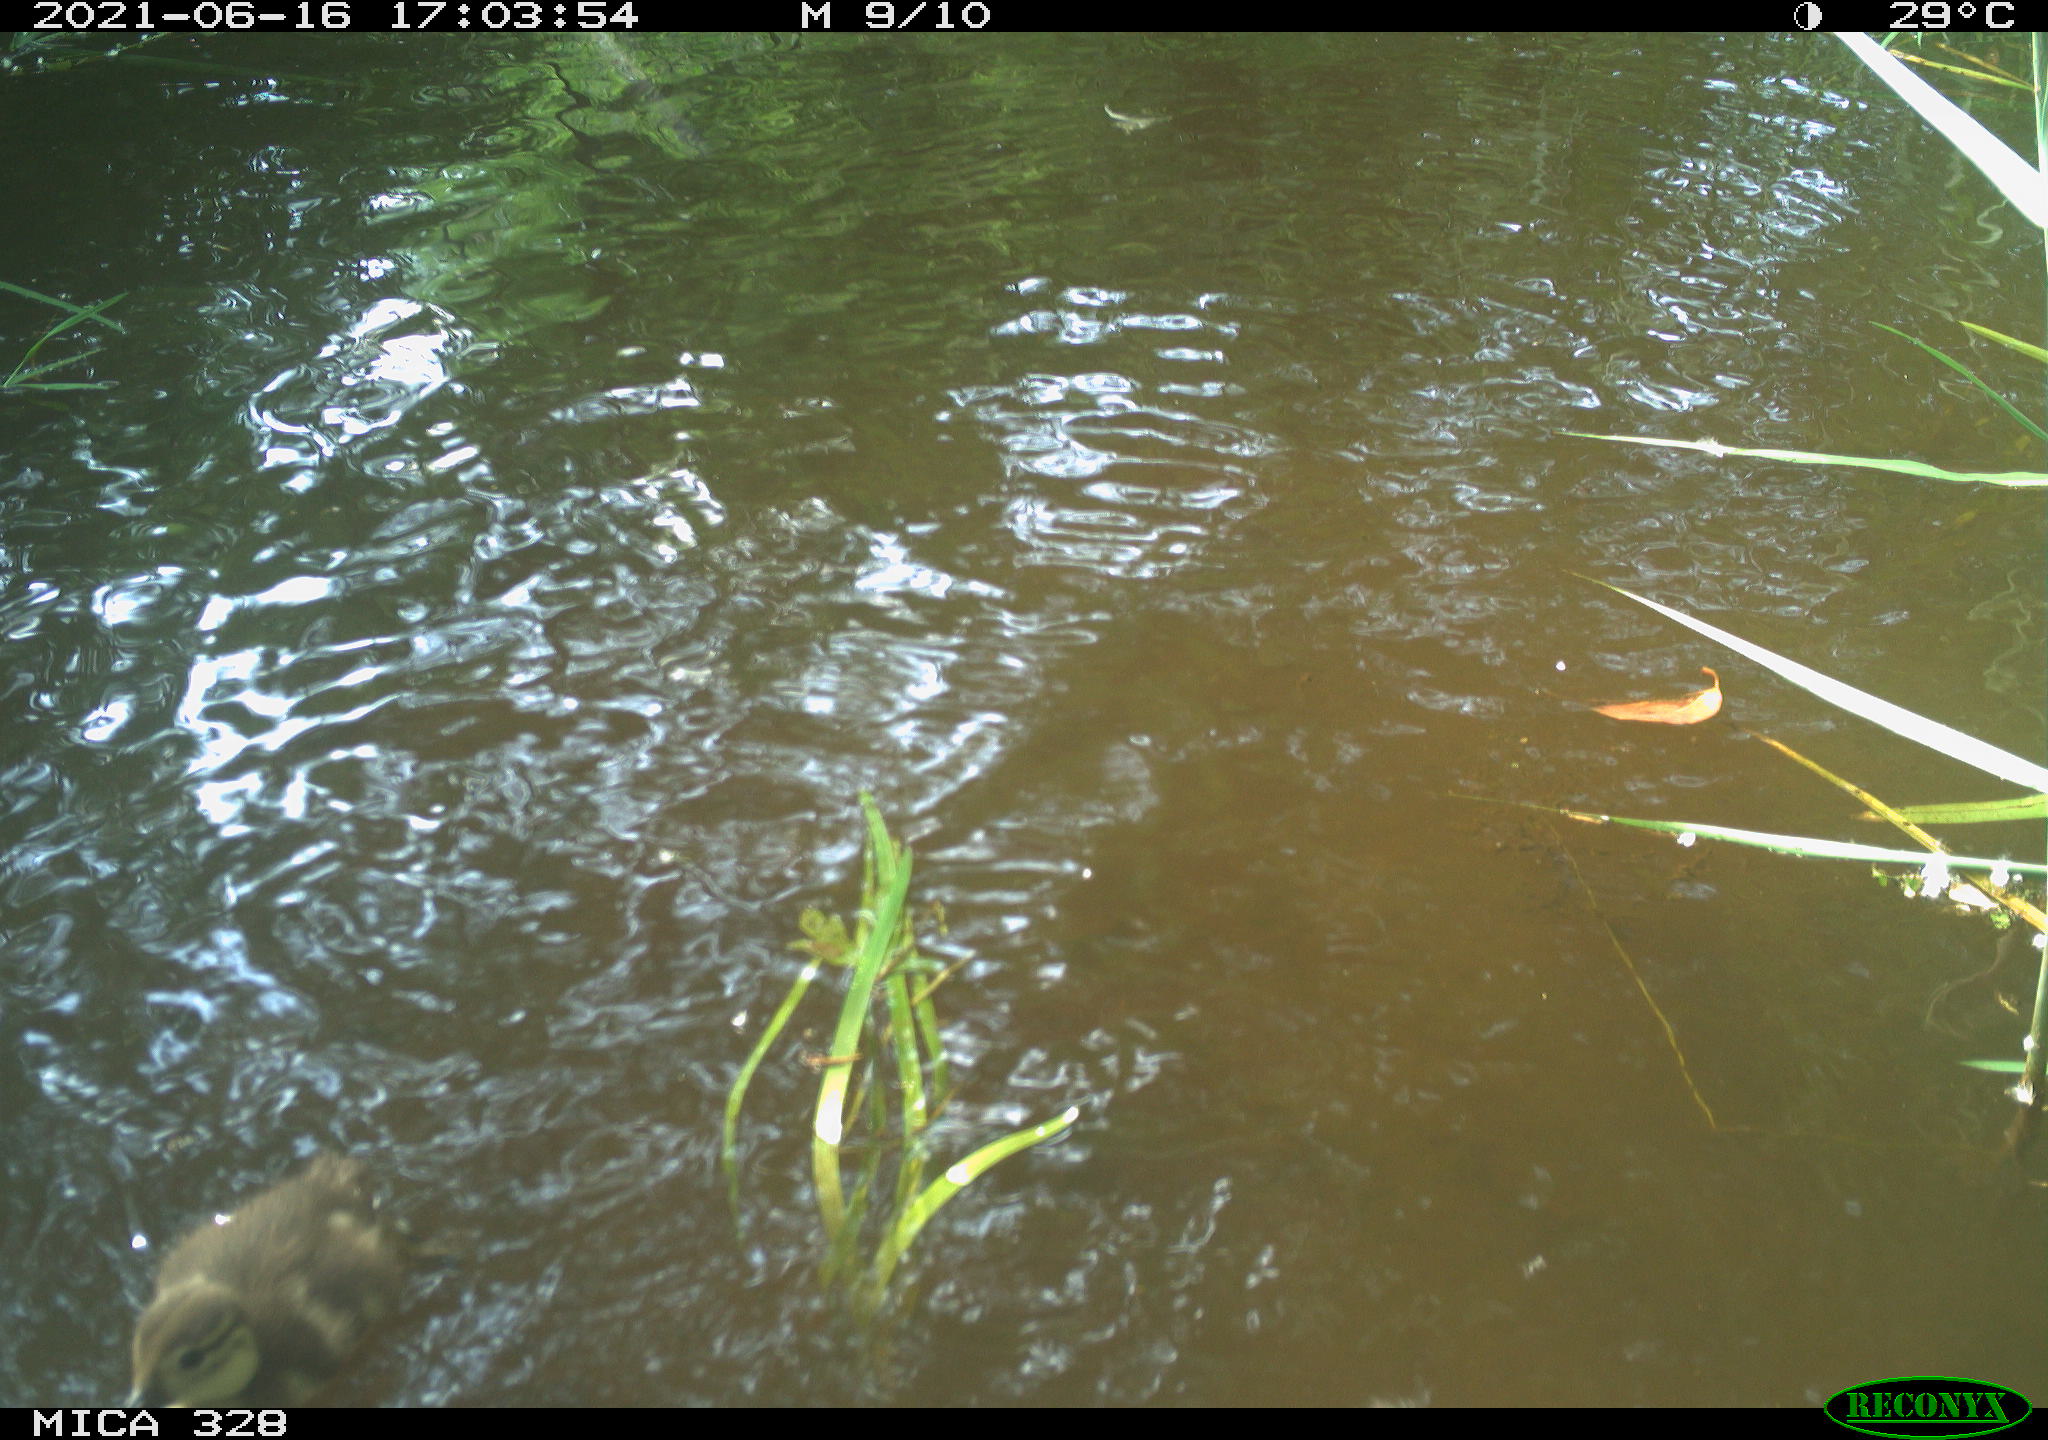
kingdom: Animalia
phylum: Chordata
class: Aves
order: Anseriformes
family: Anatidae
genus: Aix
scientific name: Aix galericulata
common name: Mandarin duck
